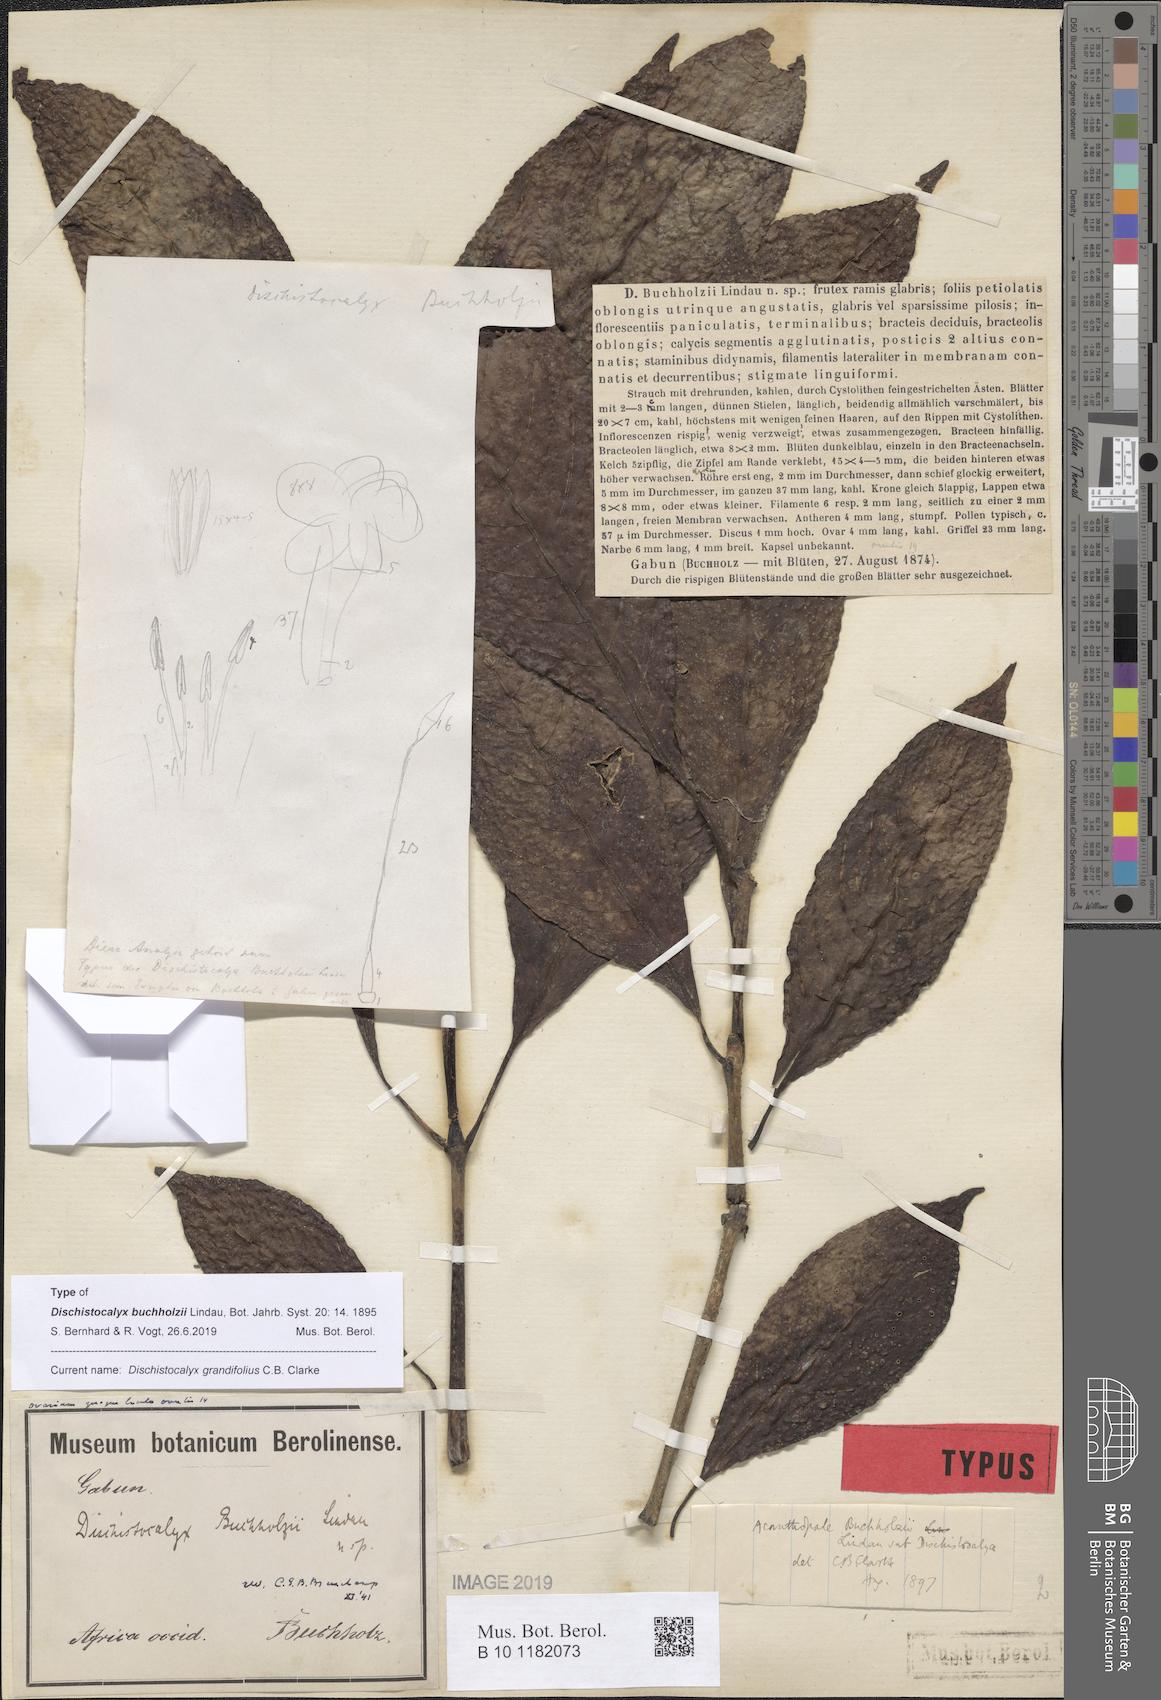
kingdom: Plantae
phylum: Tracheophyta
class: Magnoliopsida
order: Lamiales
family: Acanthaceae
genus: Dischistocalyx
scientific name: Dischistocalyx grandifolius
